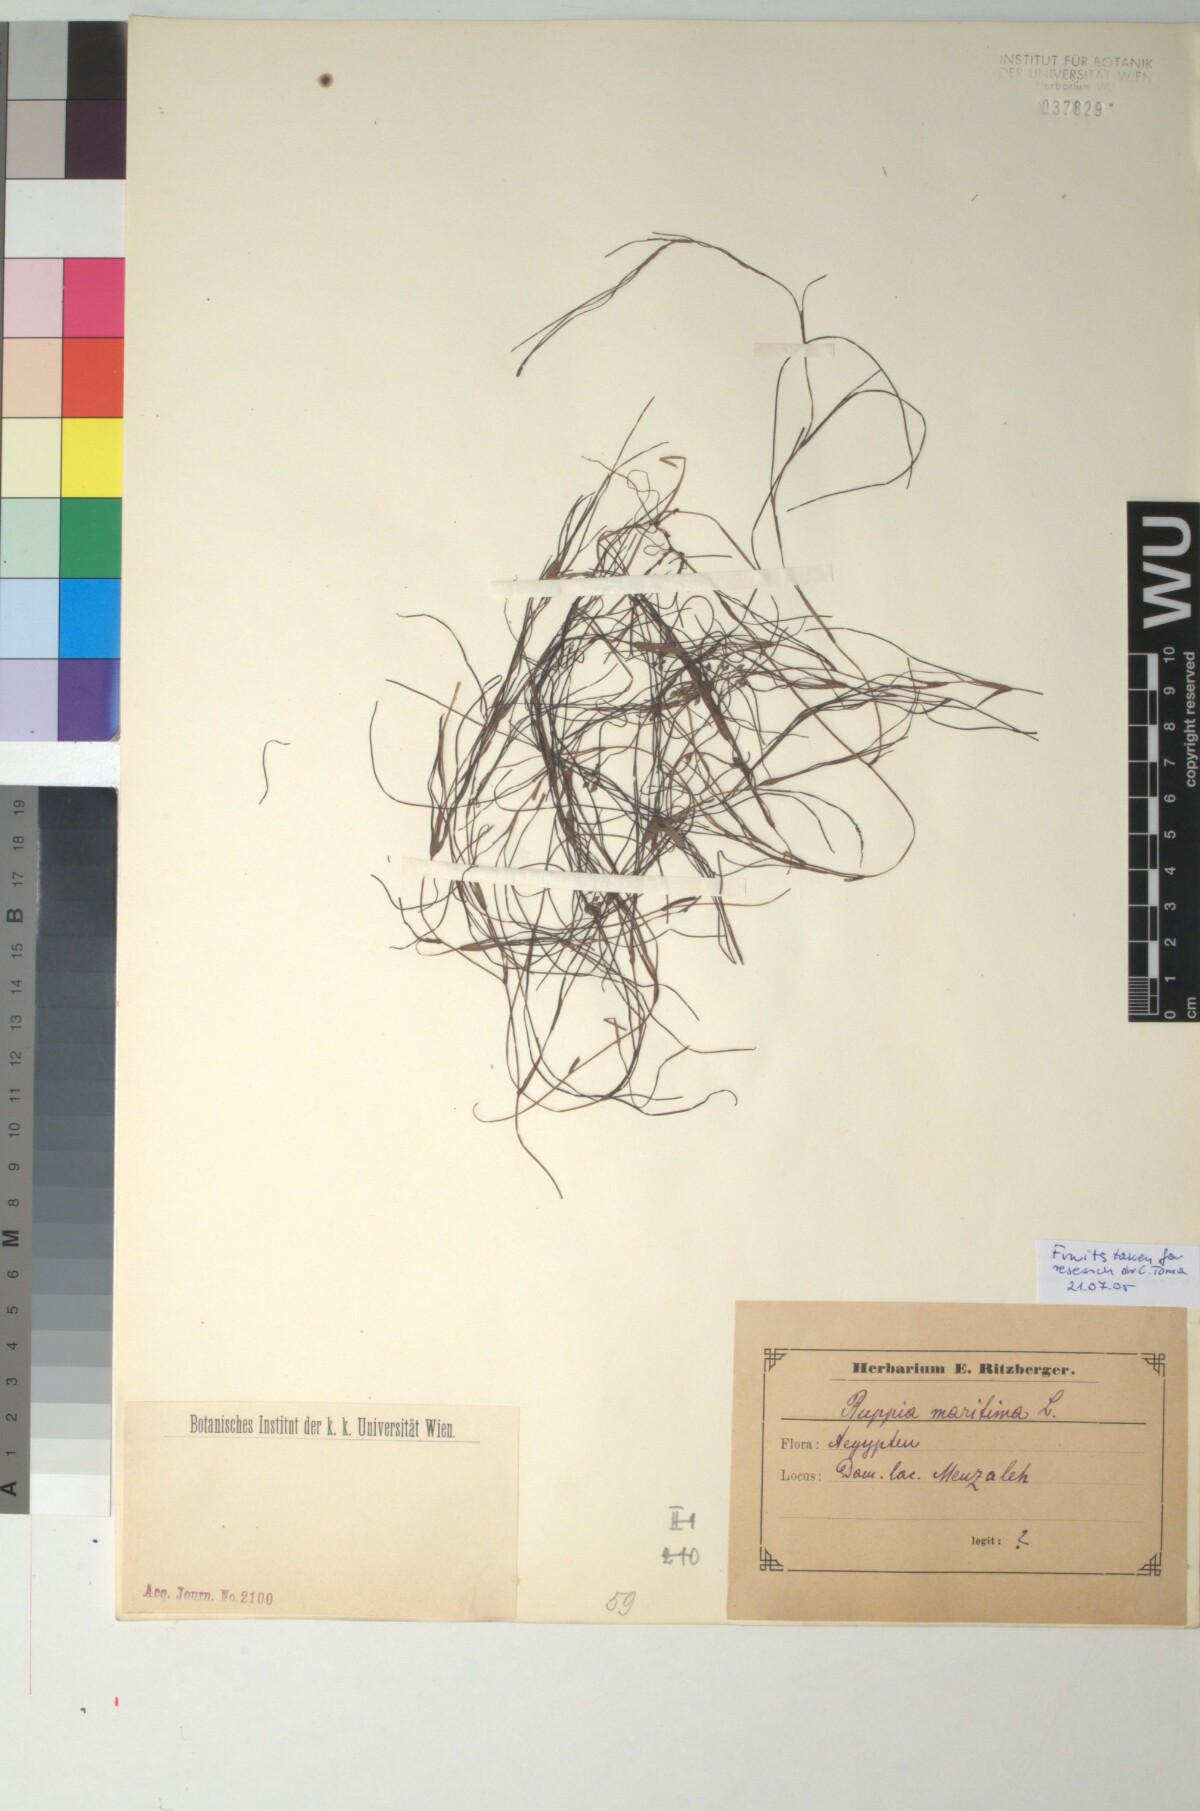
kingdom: Plantae
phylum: Tracheophyta
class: Liliopsida
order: Alismatales
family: Ruppiaceae
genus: Ruppia
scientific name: Ruppia maritima
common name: Beaked tasselweed
